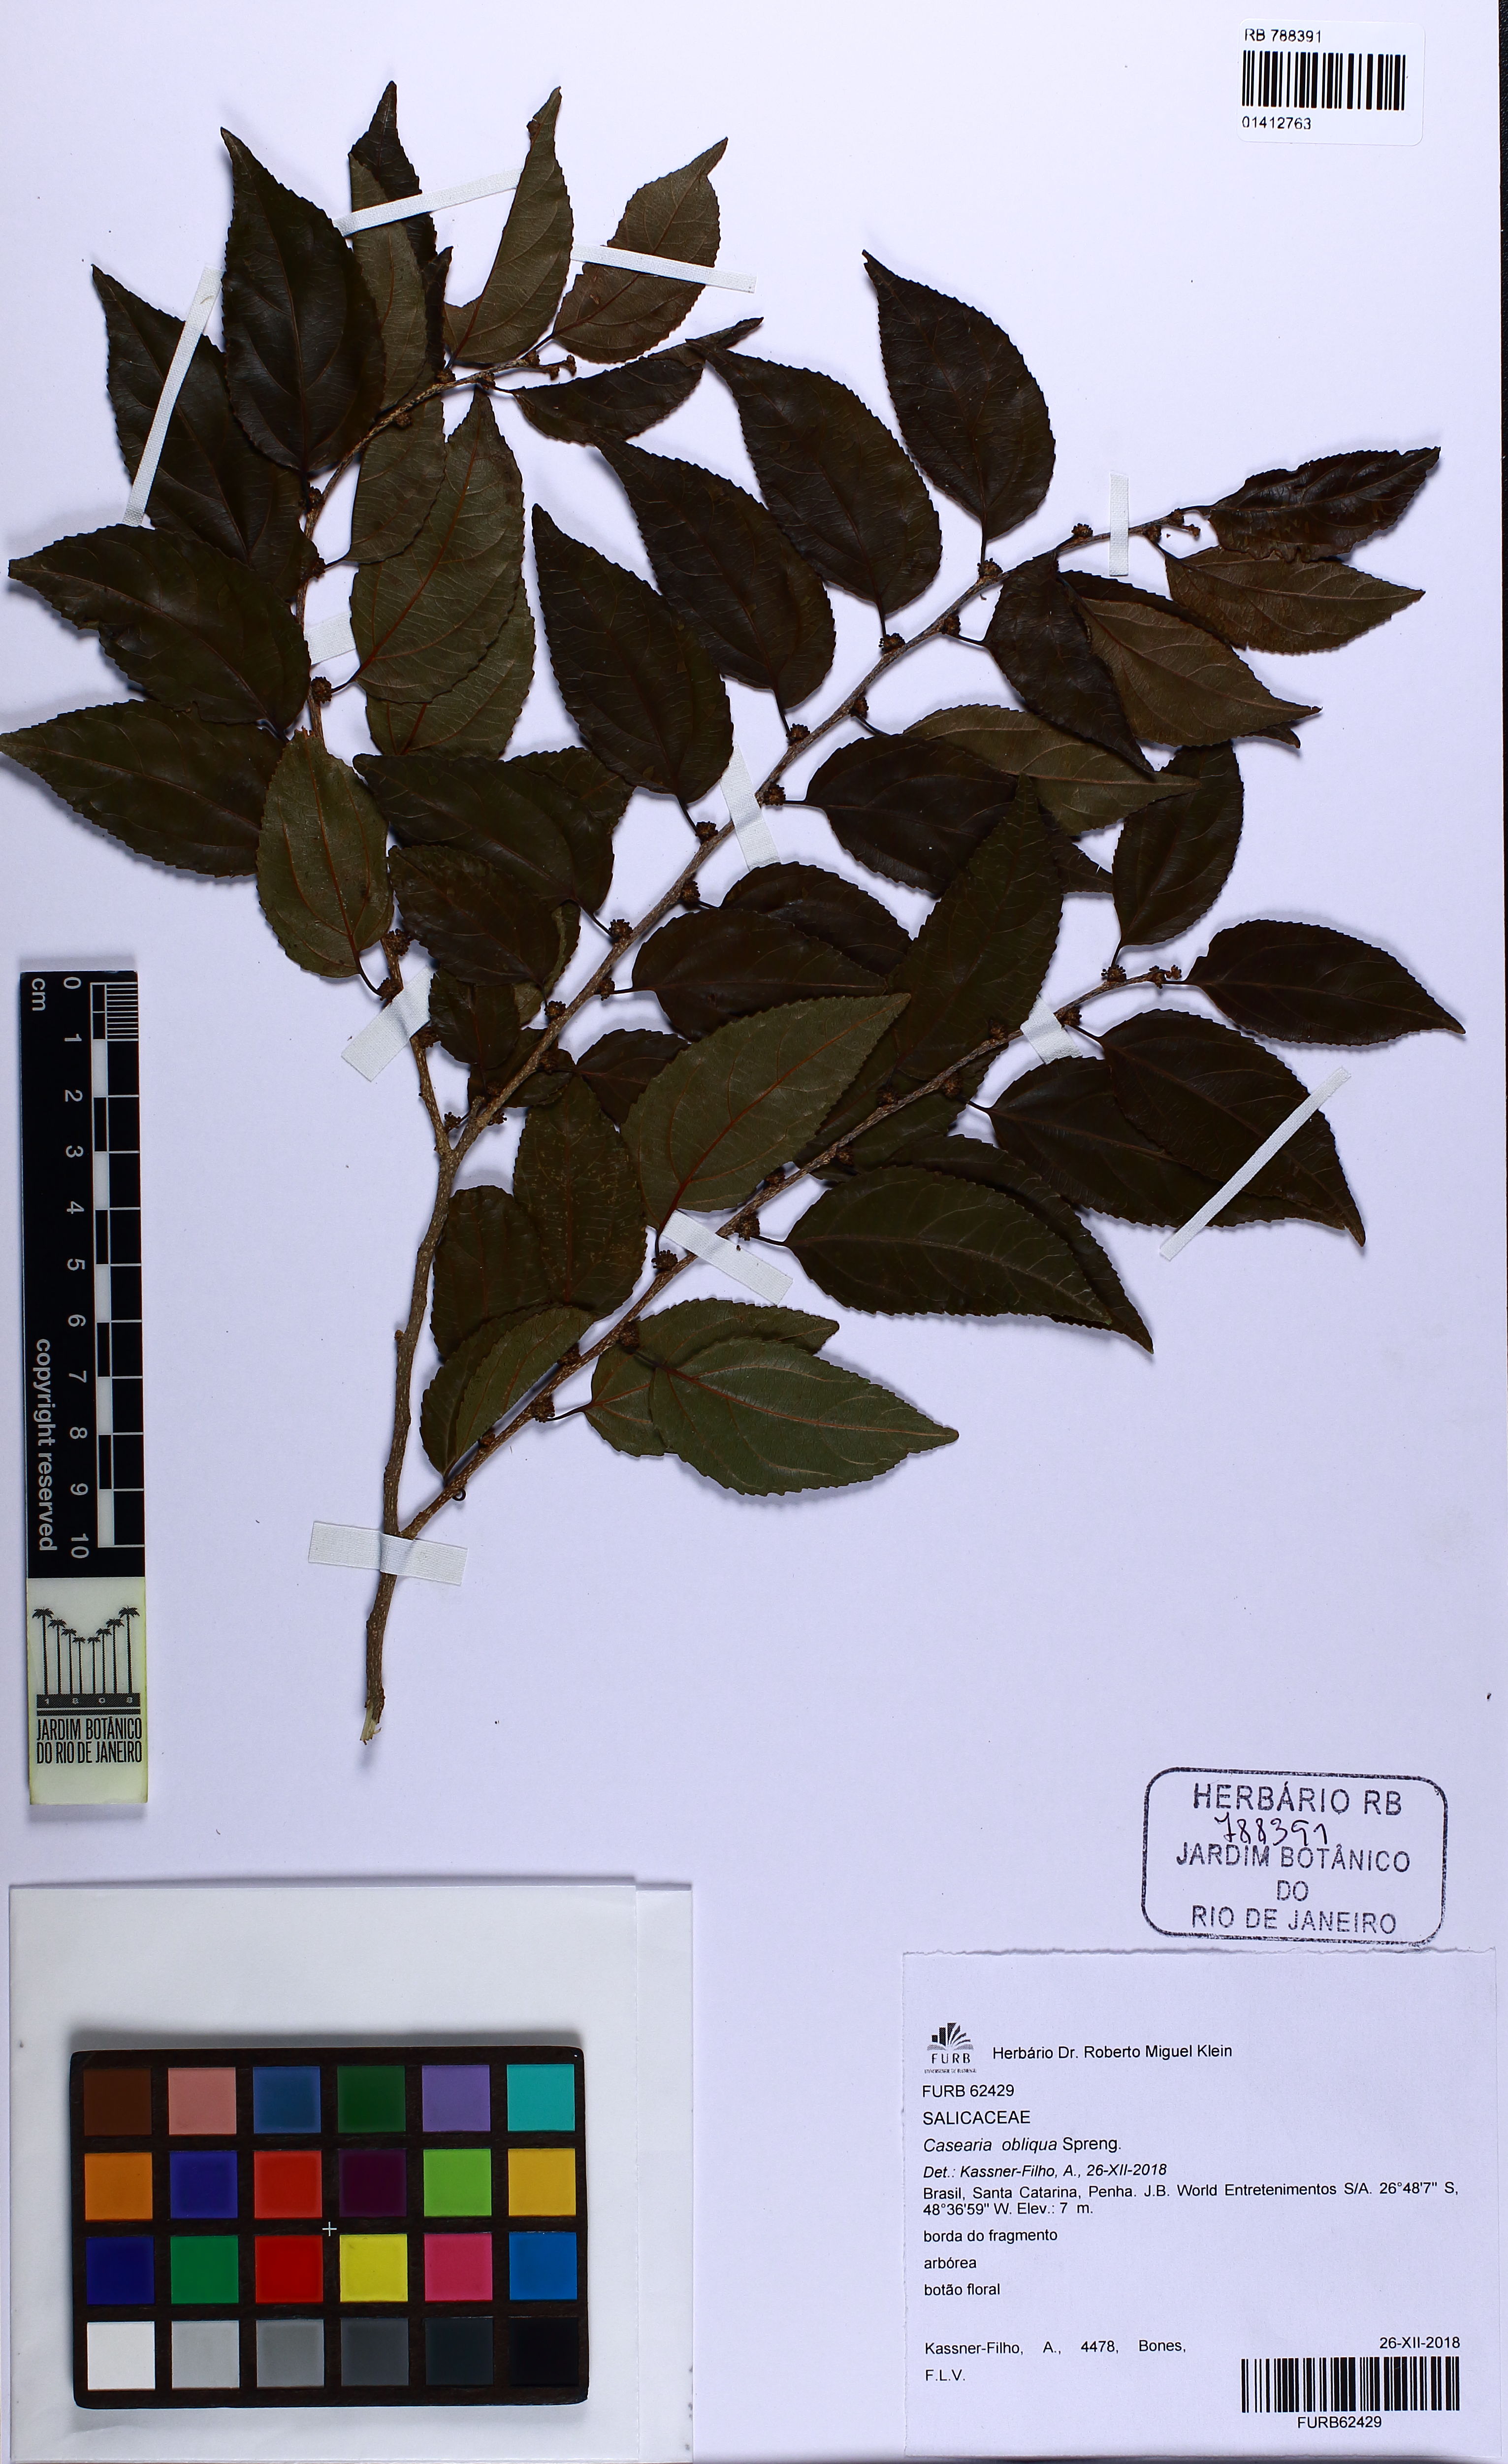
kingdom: Plantae
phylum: Tracheophyta
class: Magnoliopsida
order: Malpighiales
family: Salicaceae
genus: Casearia
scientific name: Casearia obliqua
